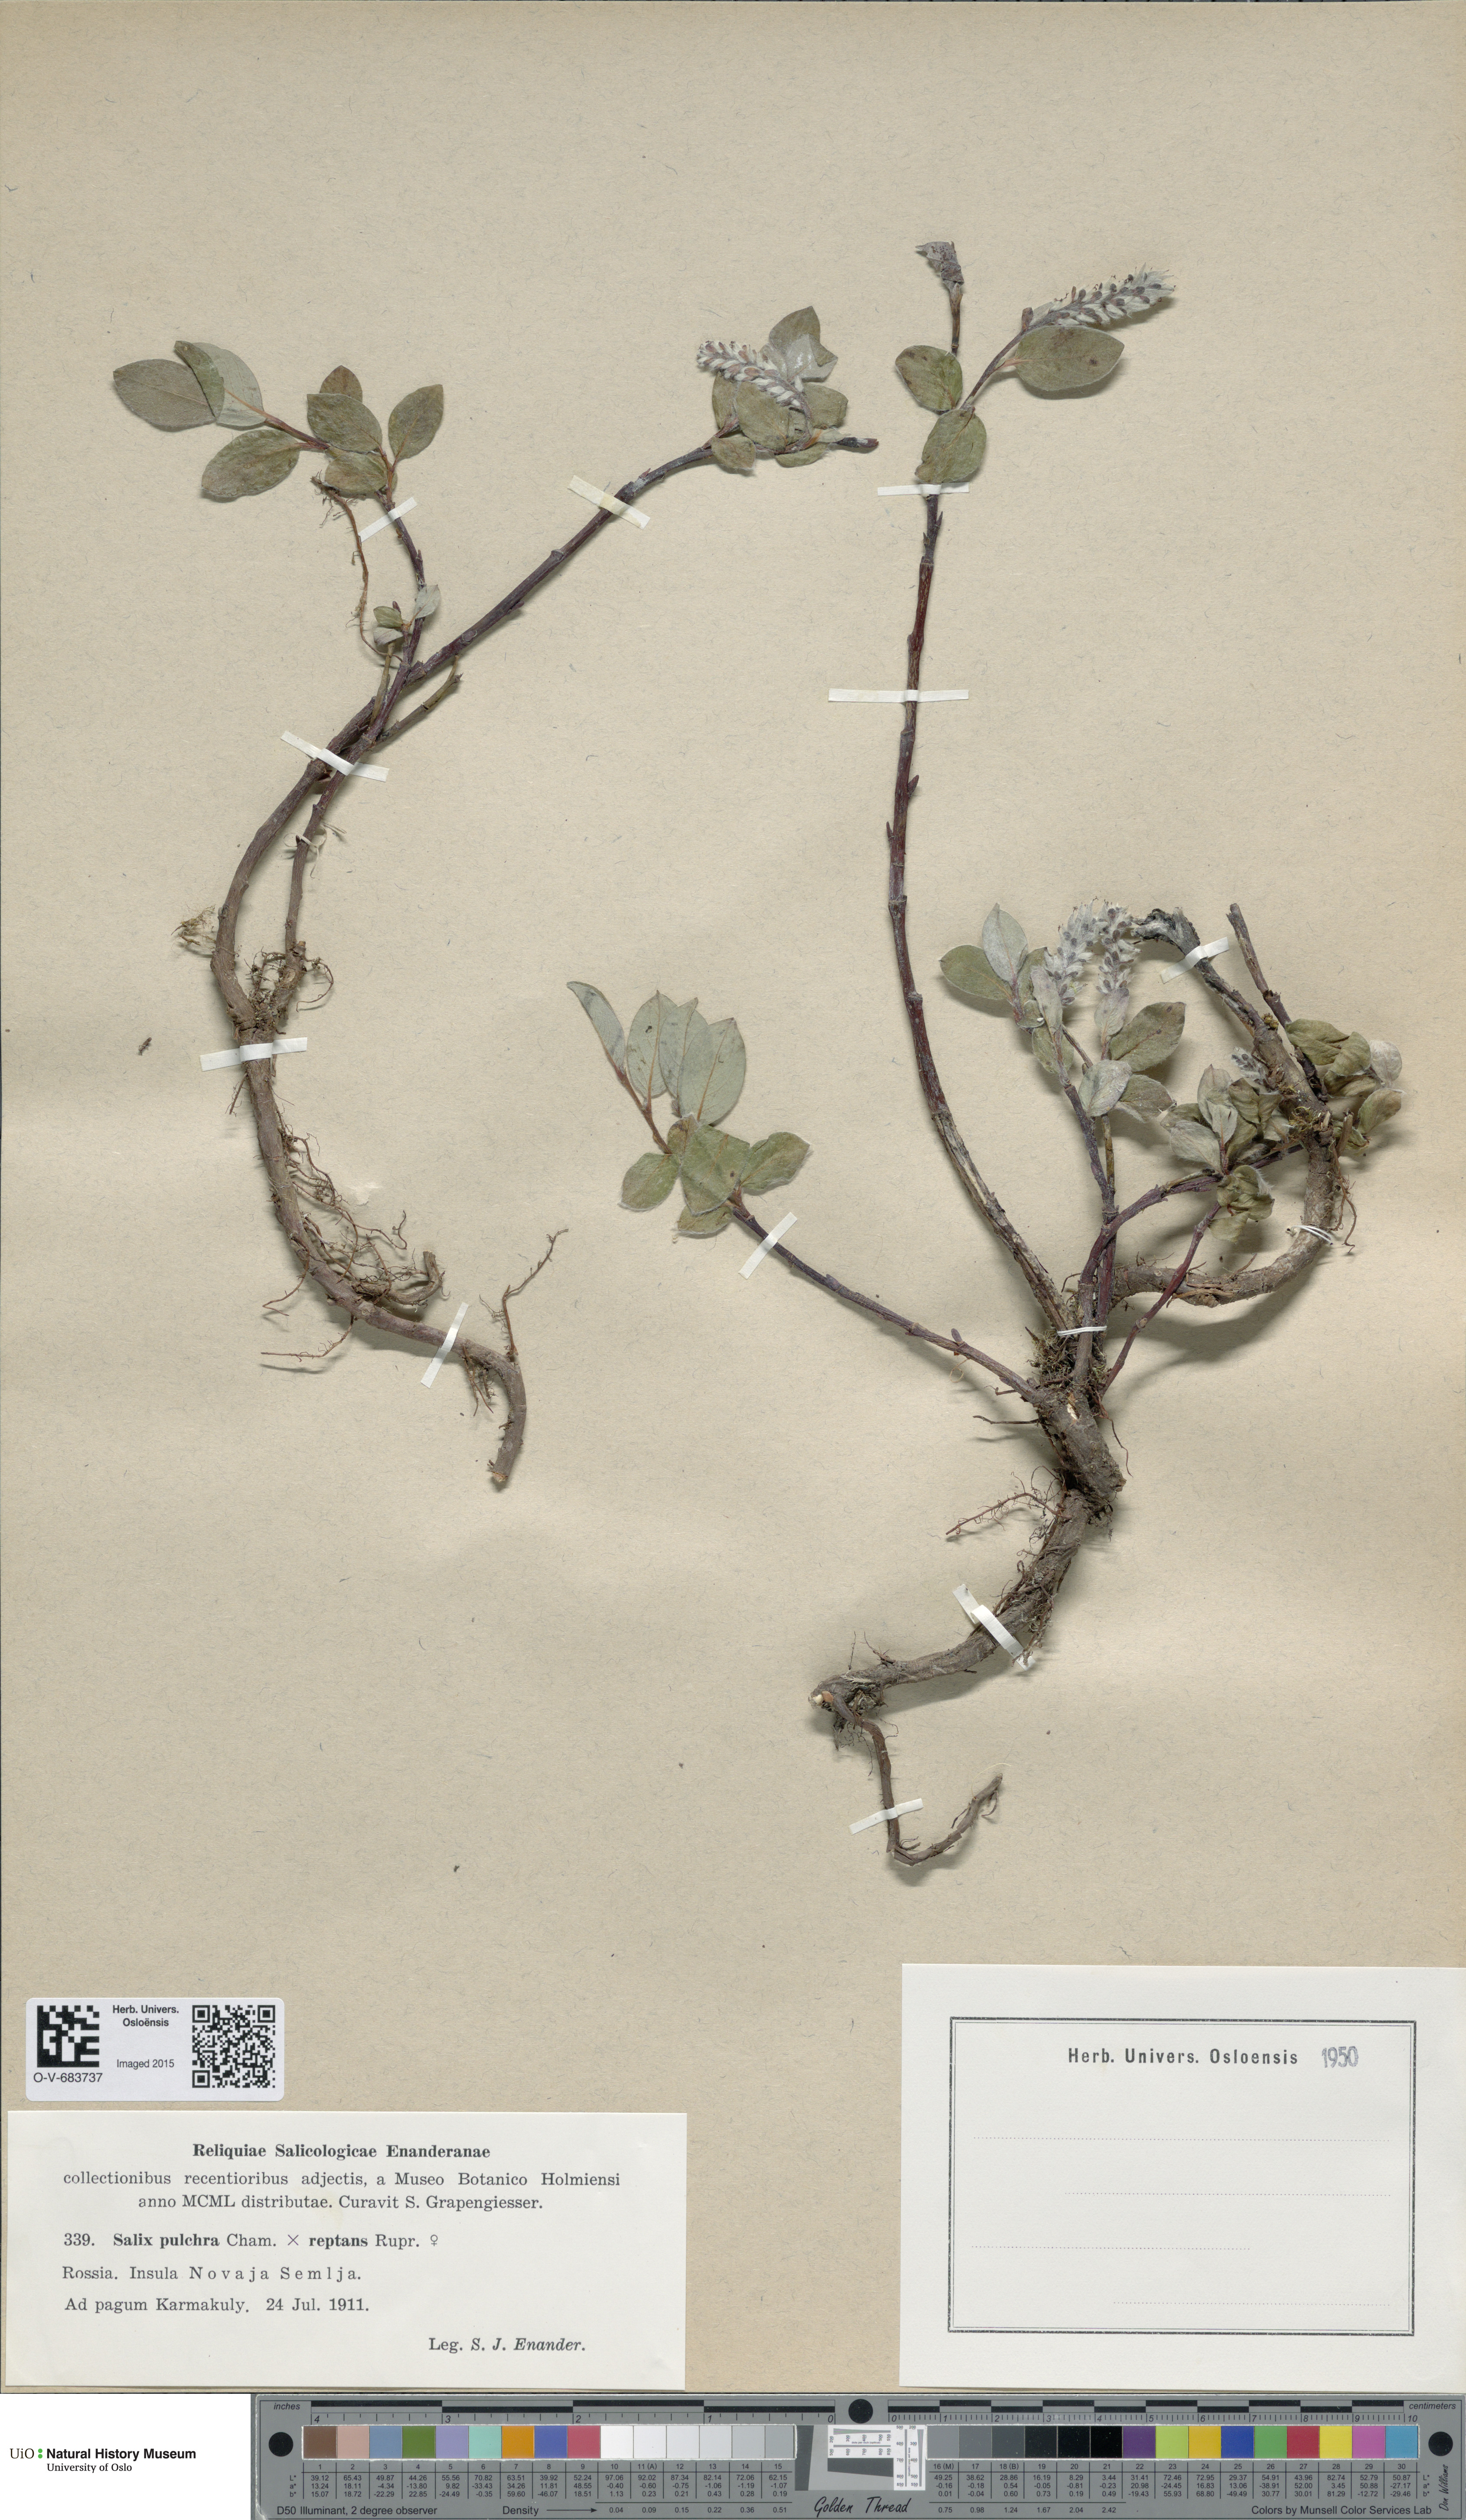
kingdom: Plantae
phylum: Tracheophyta
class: Magnoliopsida
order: Malpighiales
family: Salicaceae
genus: Salix
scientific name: Salix
